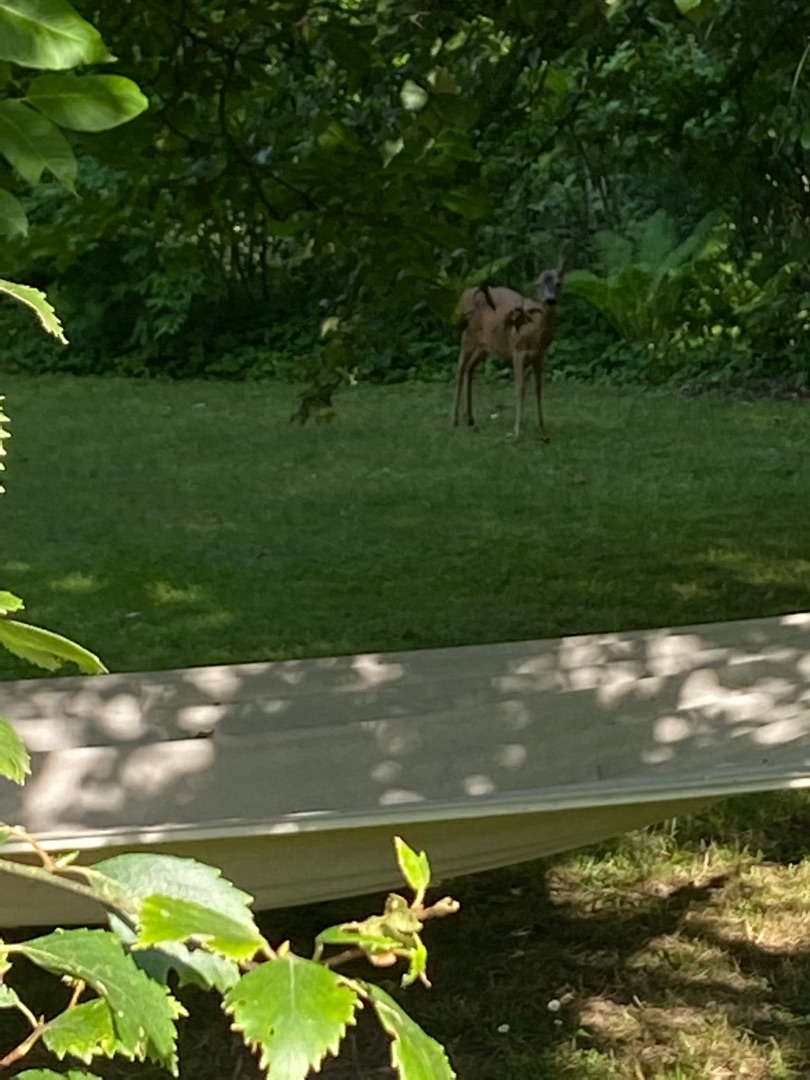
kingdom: Animalia
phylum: Chordata
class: Mammalia
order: Artiodactyla
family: Cervidae
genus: Capreolus
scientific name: Capreolus capreolus
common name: Rådyr
